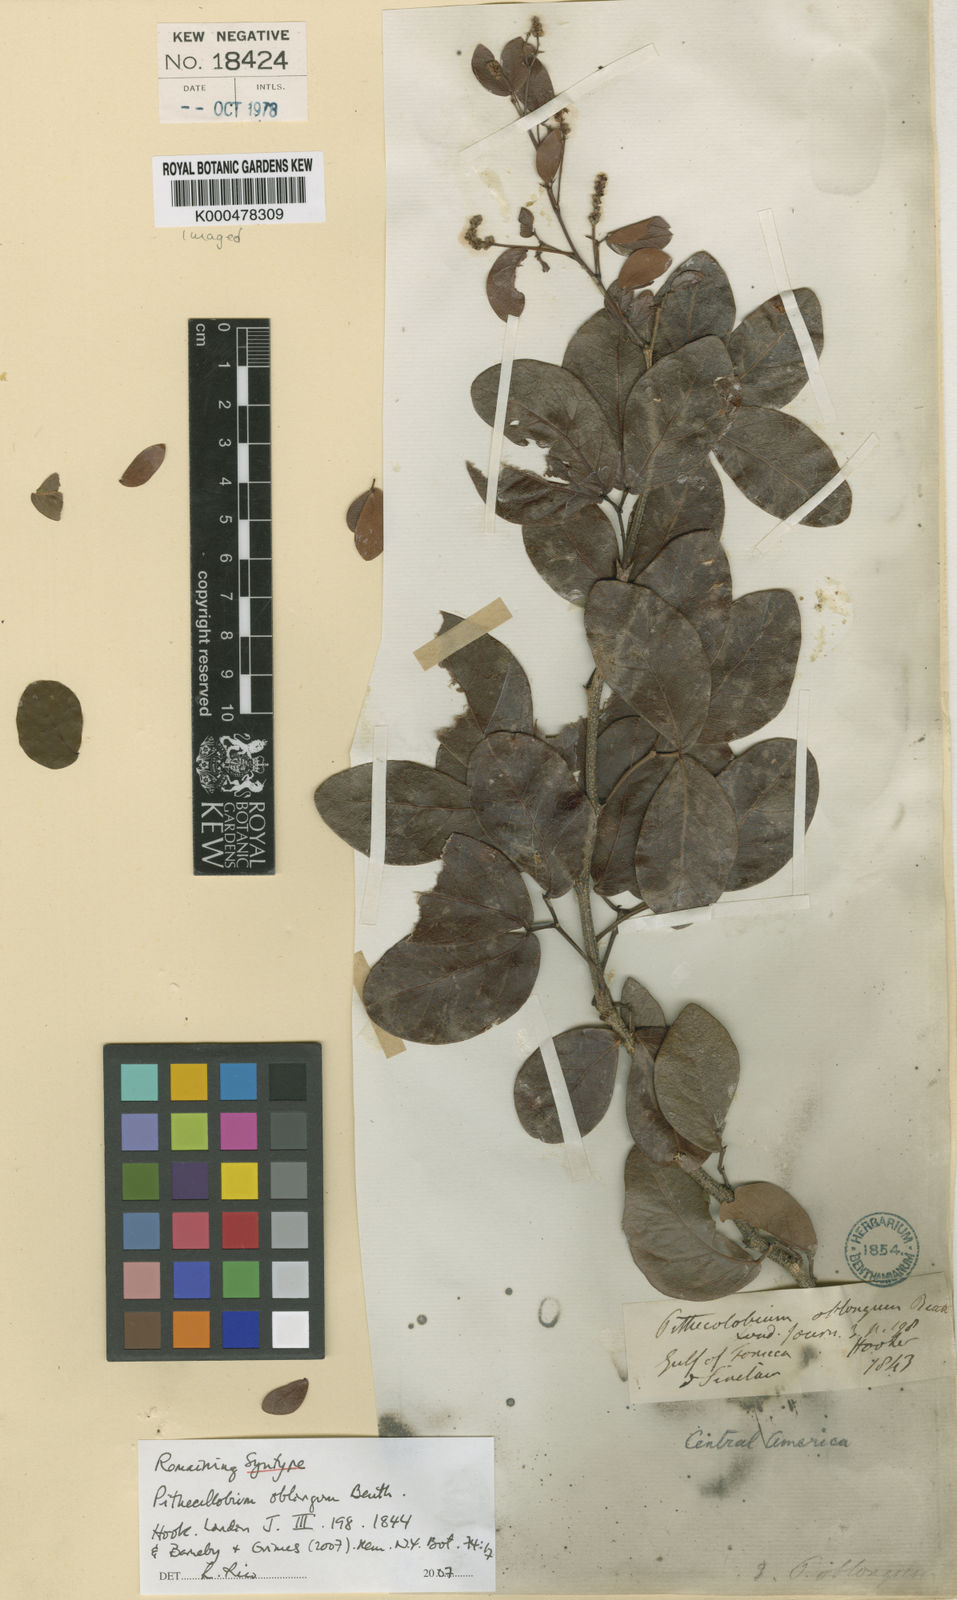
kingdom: Plantae
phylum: Tracheophyta
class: Magnoliopsida
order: Fabales
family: Fabaceae
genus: Pithecellobium
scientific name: Pithecellobium oblongum
